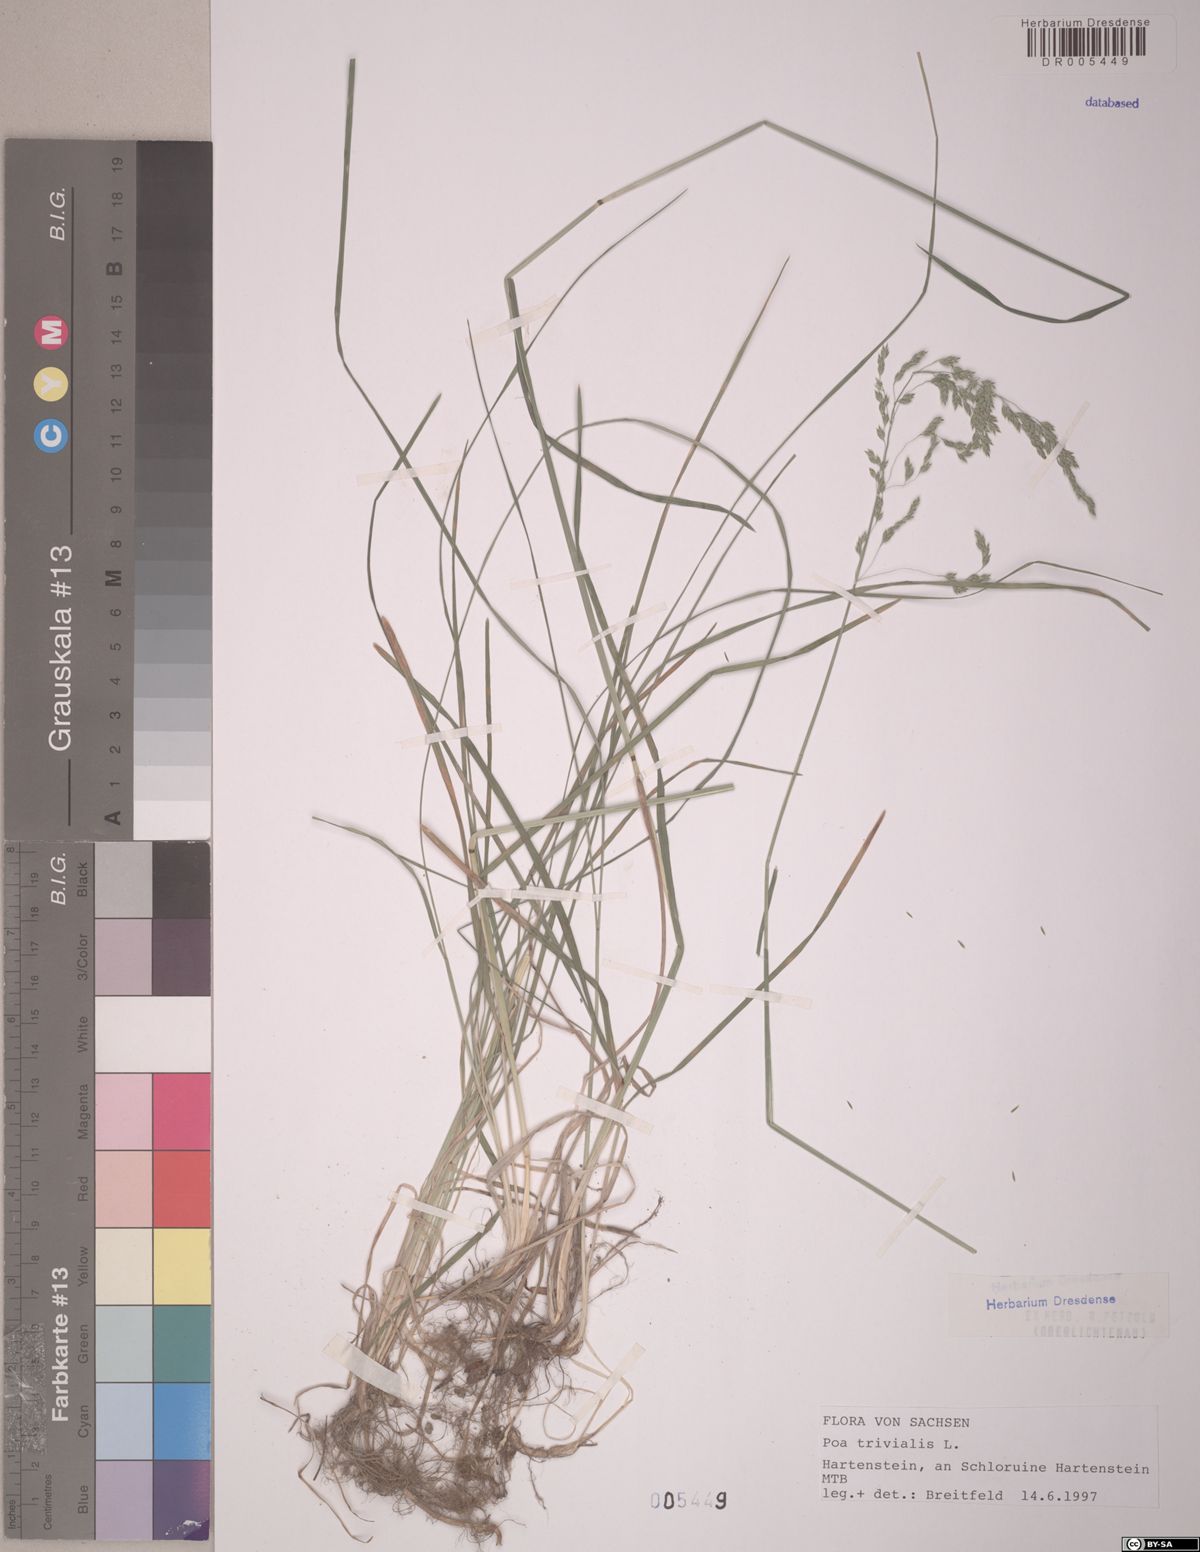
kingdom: Plantae
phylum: Tracheophyta
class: Liliopsida
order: Poales
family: Poaceae
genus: Poa
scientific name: Poa trivialis
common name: Rough bluegrass
